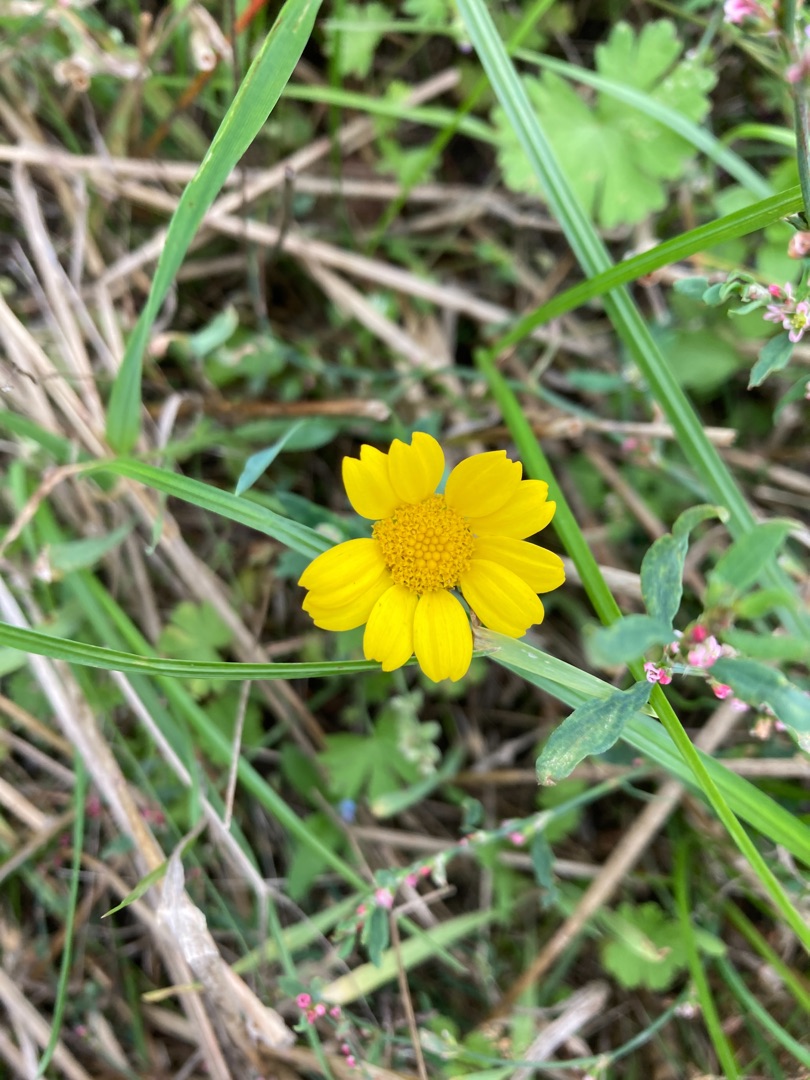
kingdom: Plantae
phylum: Tracheophyta
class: Magnoliopsida
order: Asterales
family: Asteraceae
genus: Glebionis
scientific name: Glebionis segetum
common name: Gul okseøje
